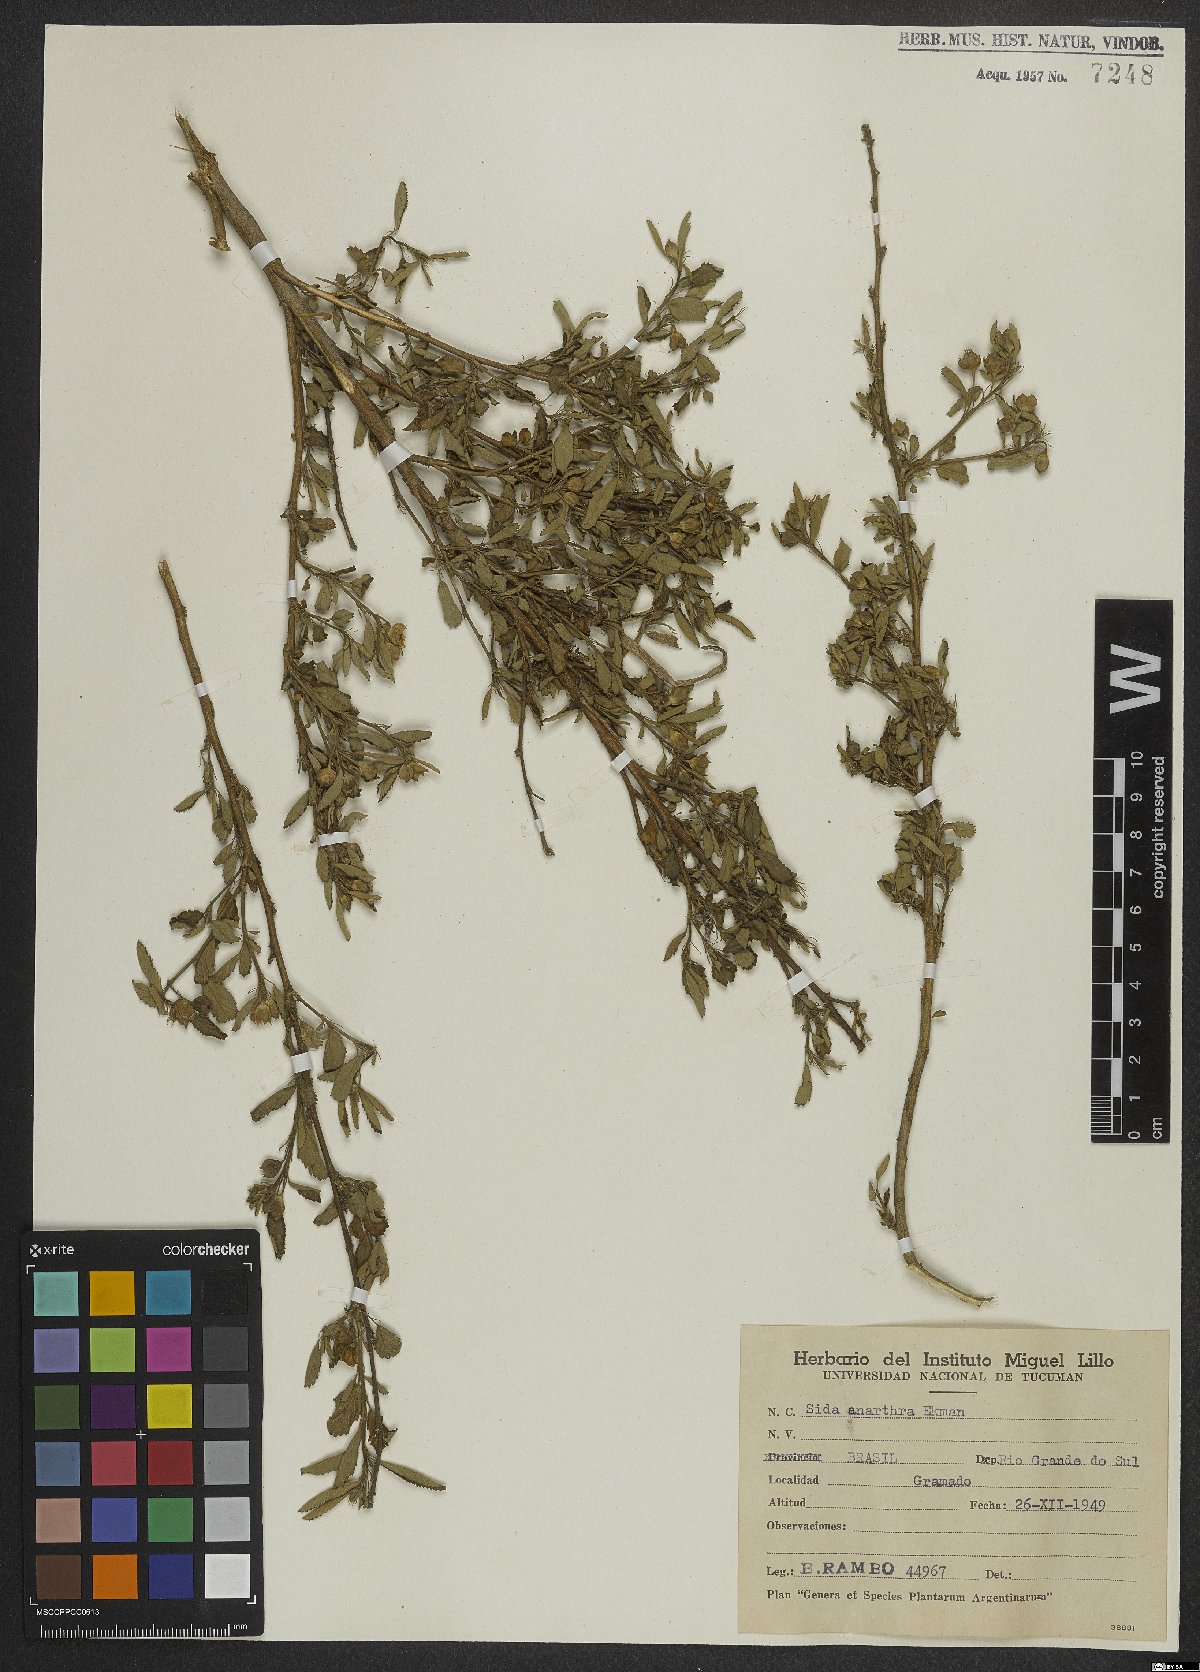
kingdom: Plantae
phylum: Tracheophyta
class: Magnoliopsida
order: Malvales
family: Malvaceae
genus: Sida
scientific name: Sida potentilloides
